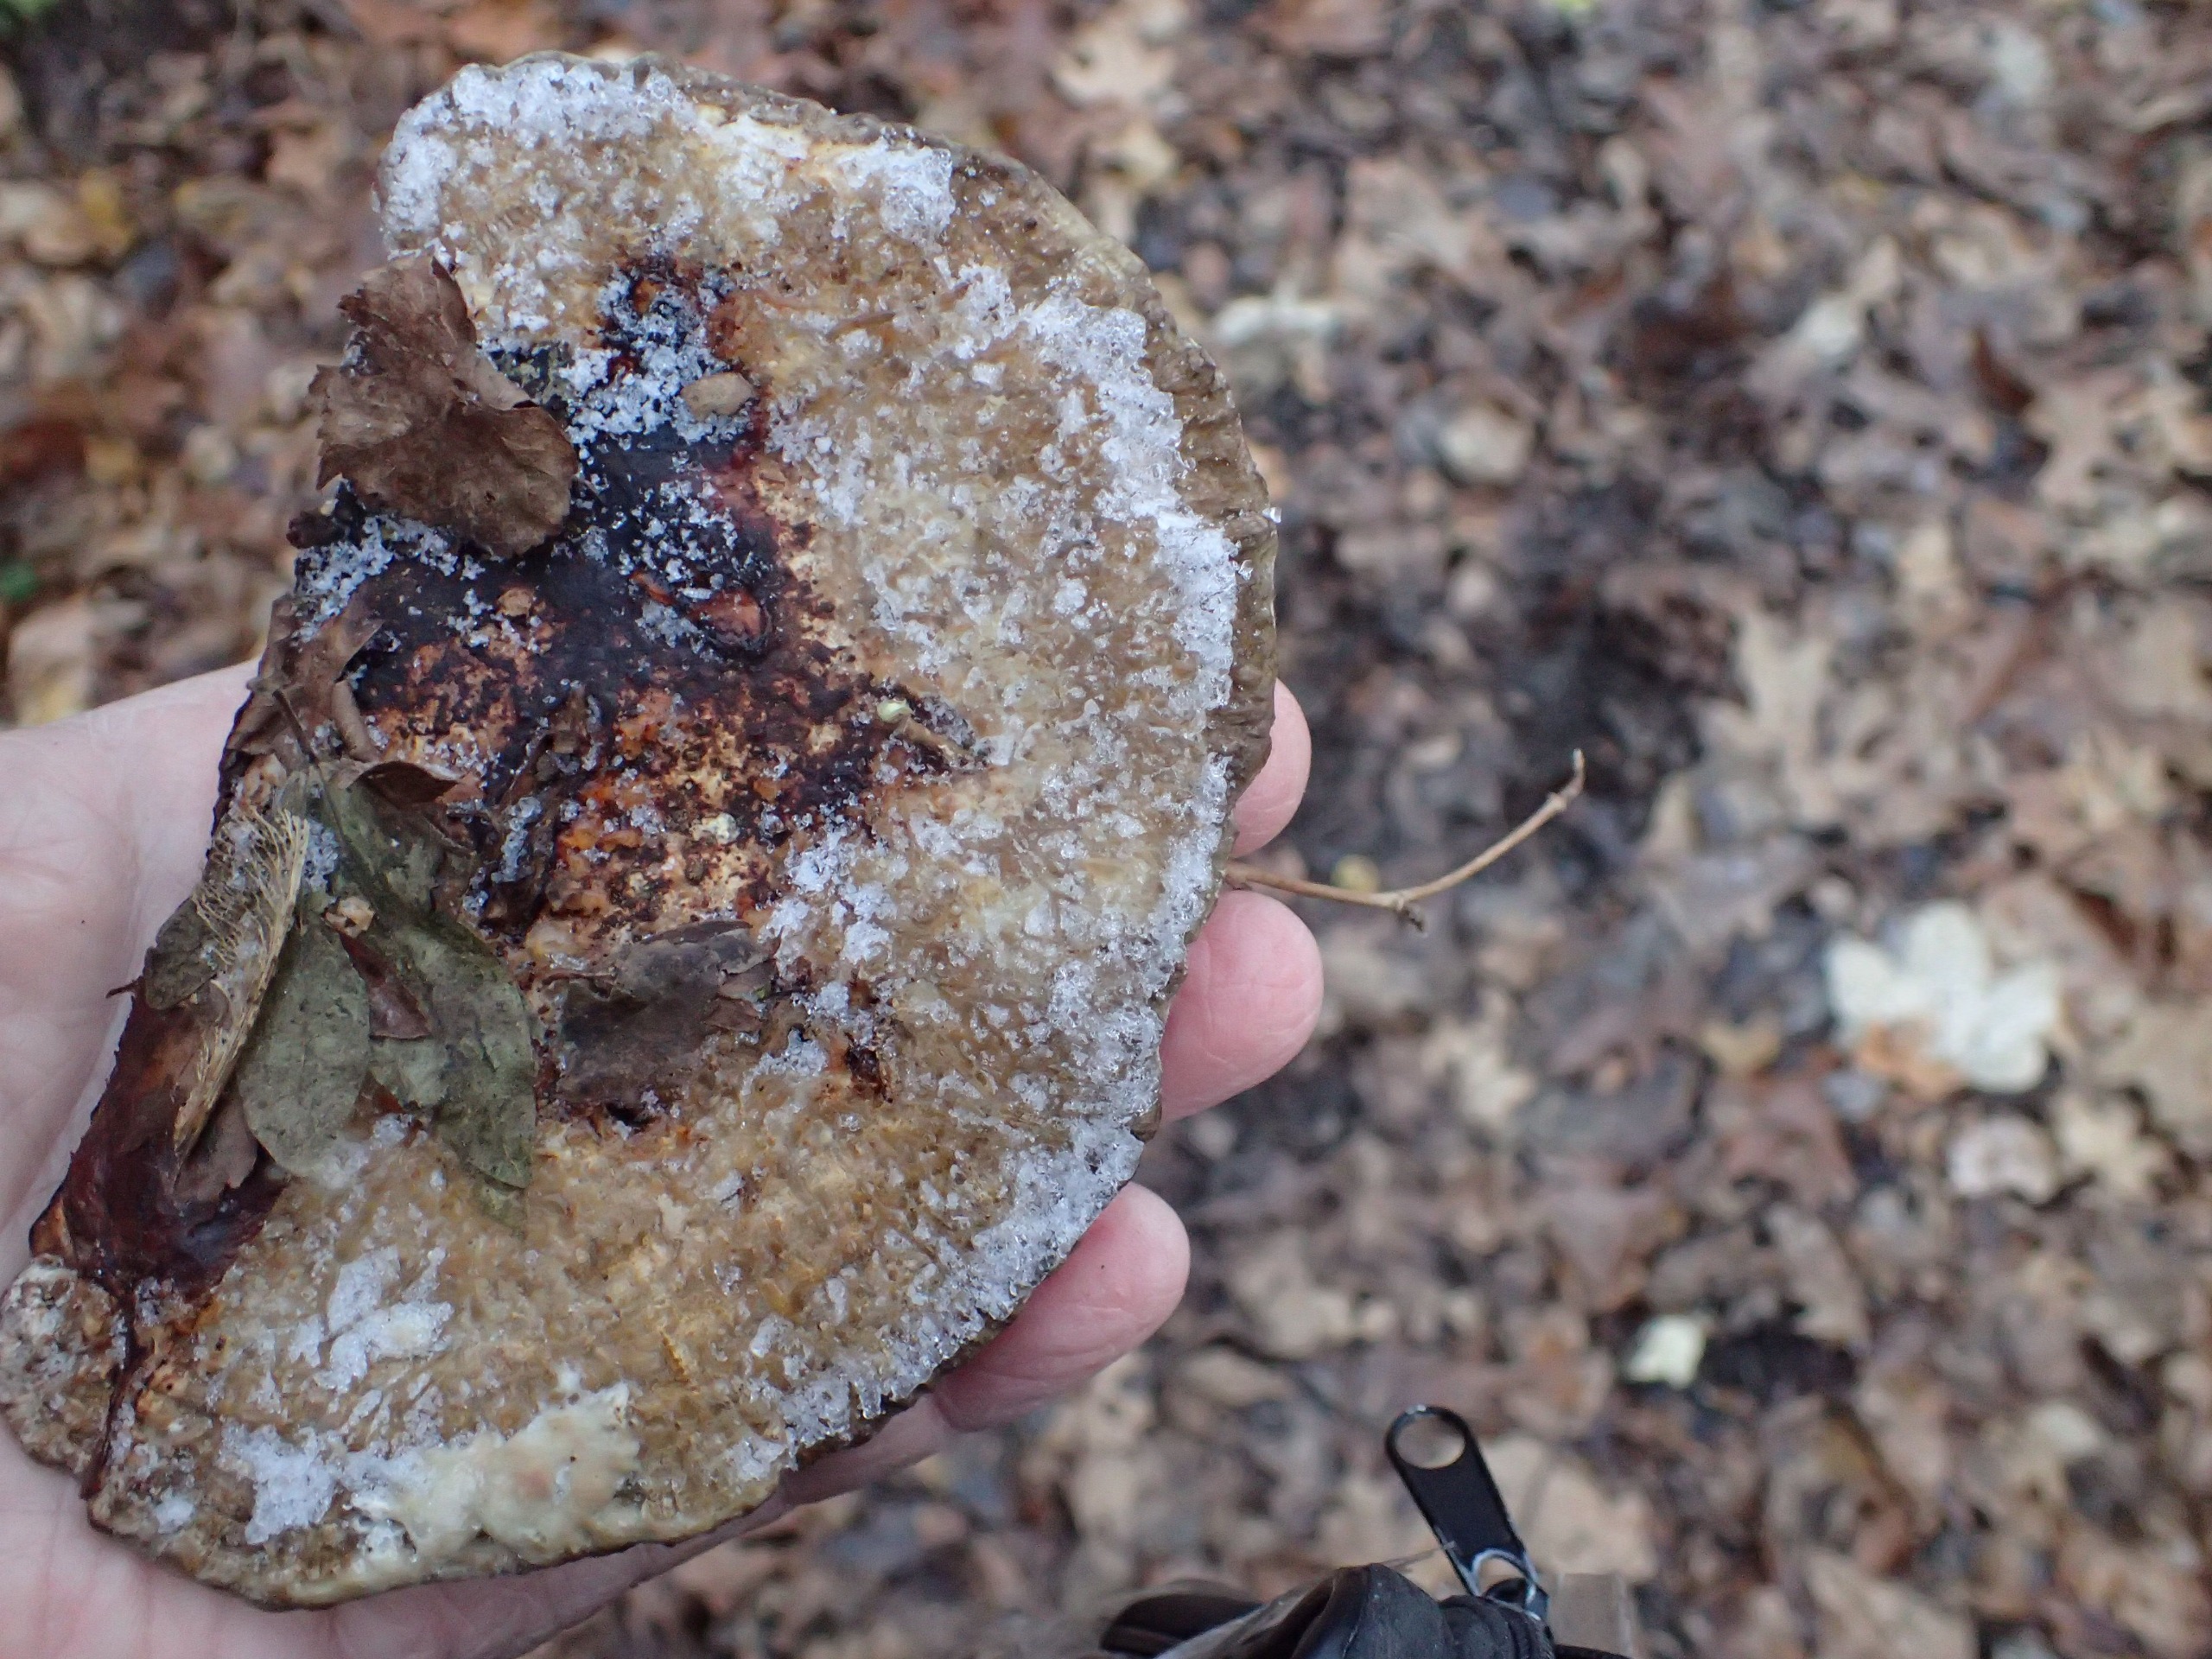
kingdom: Fungi
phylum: Basidiomycota
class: Agaricomycetes
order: Polyporales
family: Polyporaceae
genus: Daedaleopsis
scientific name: Daedaleopsis confragosa
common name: Rødmende læderporesvamp
